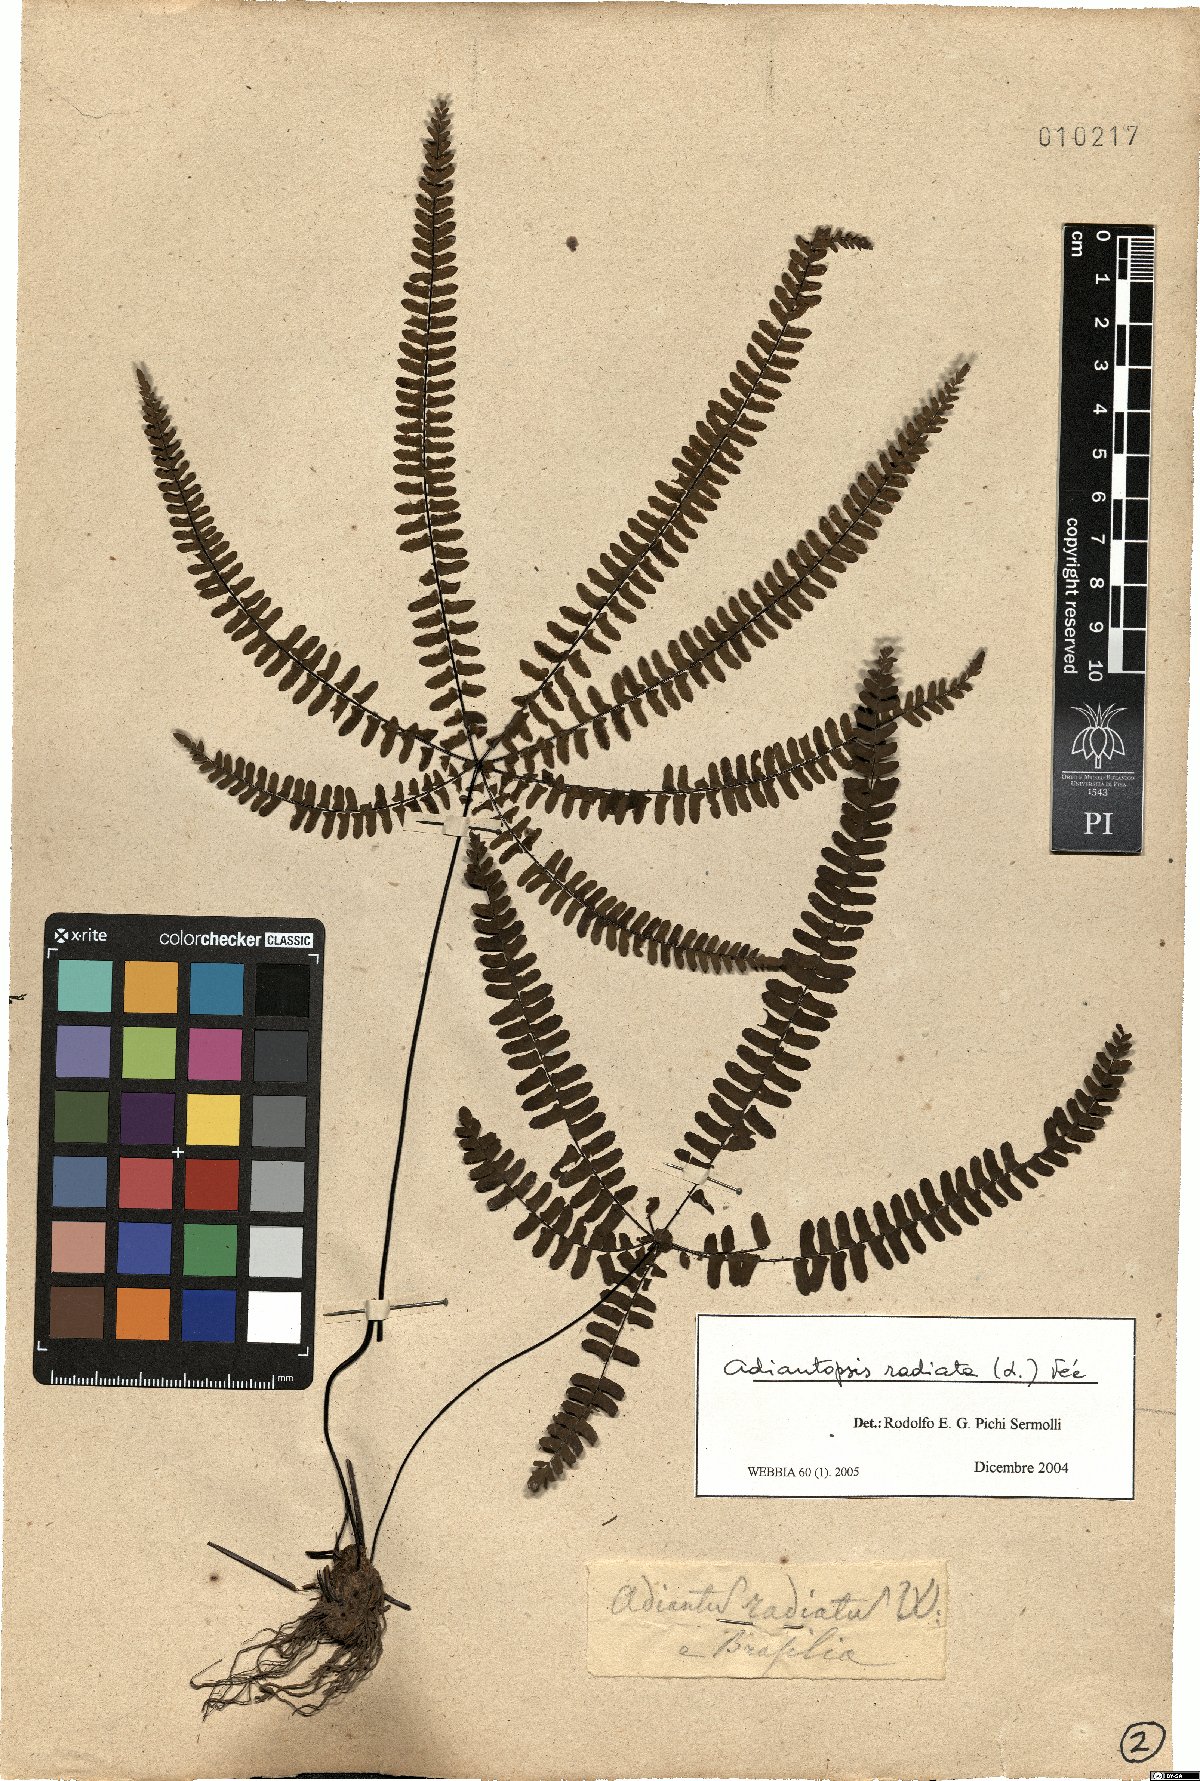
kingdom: Plantae
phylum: Tracheophyta
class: Polypodiopsida
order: Polypodiales
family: Pteridaceae
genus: Adiantopsis
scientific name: Adiantopsis radiata
